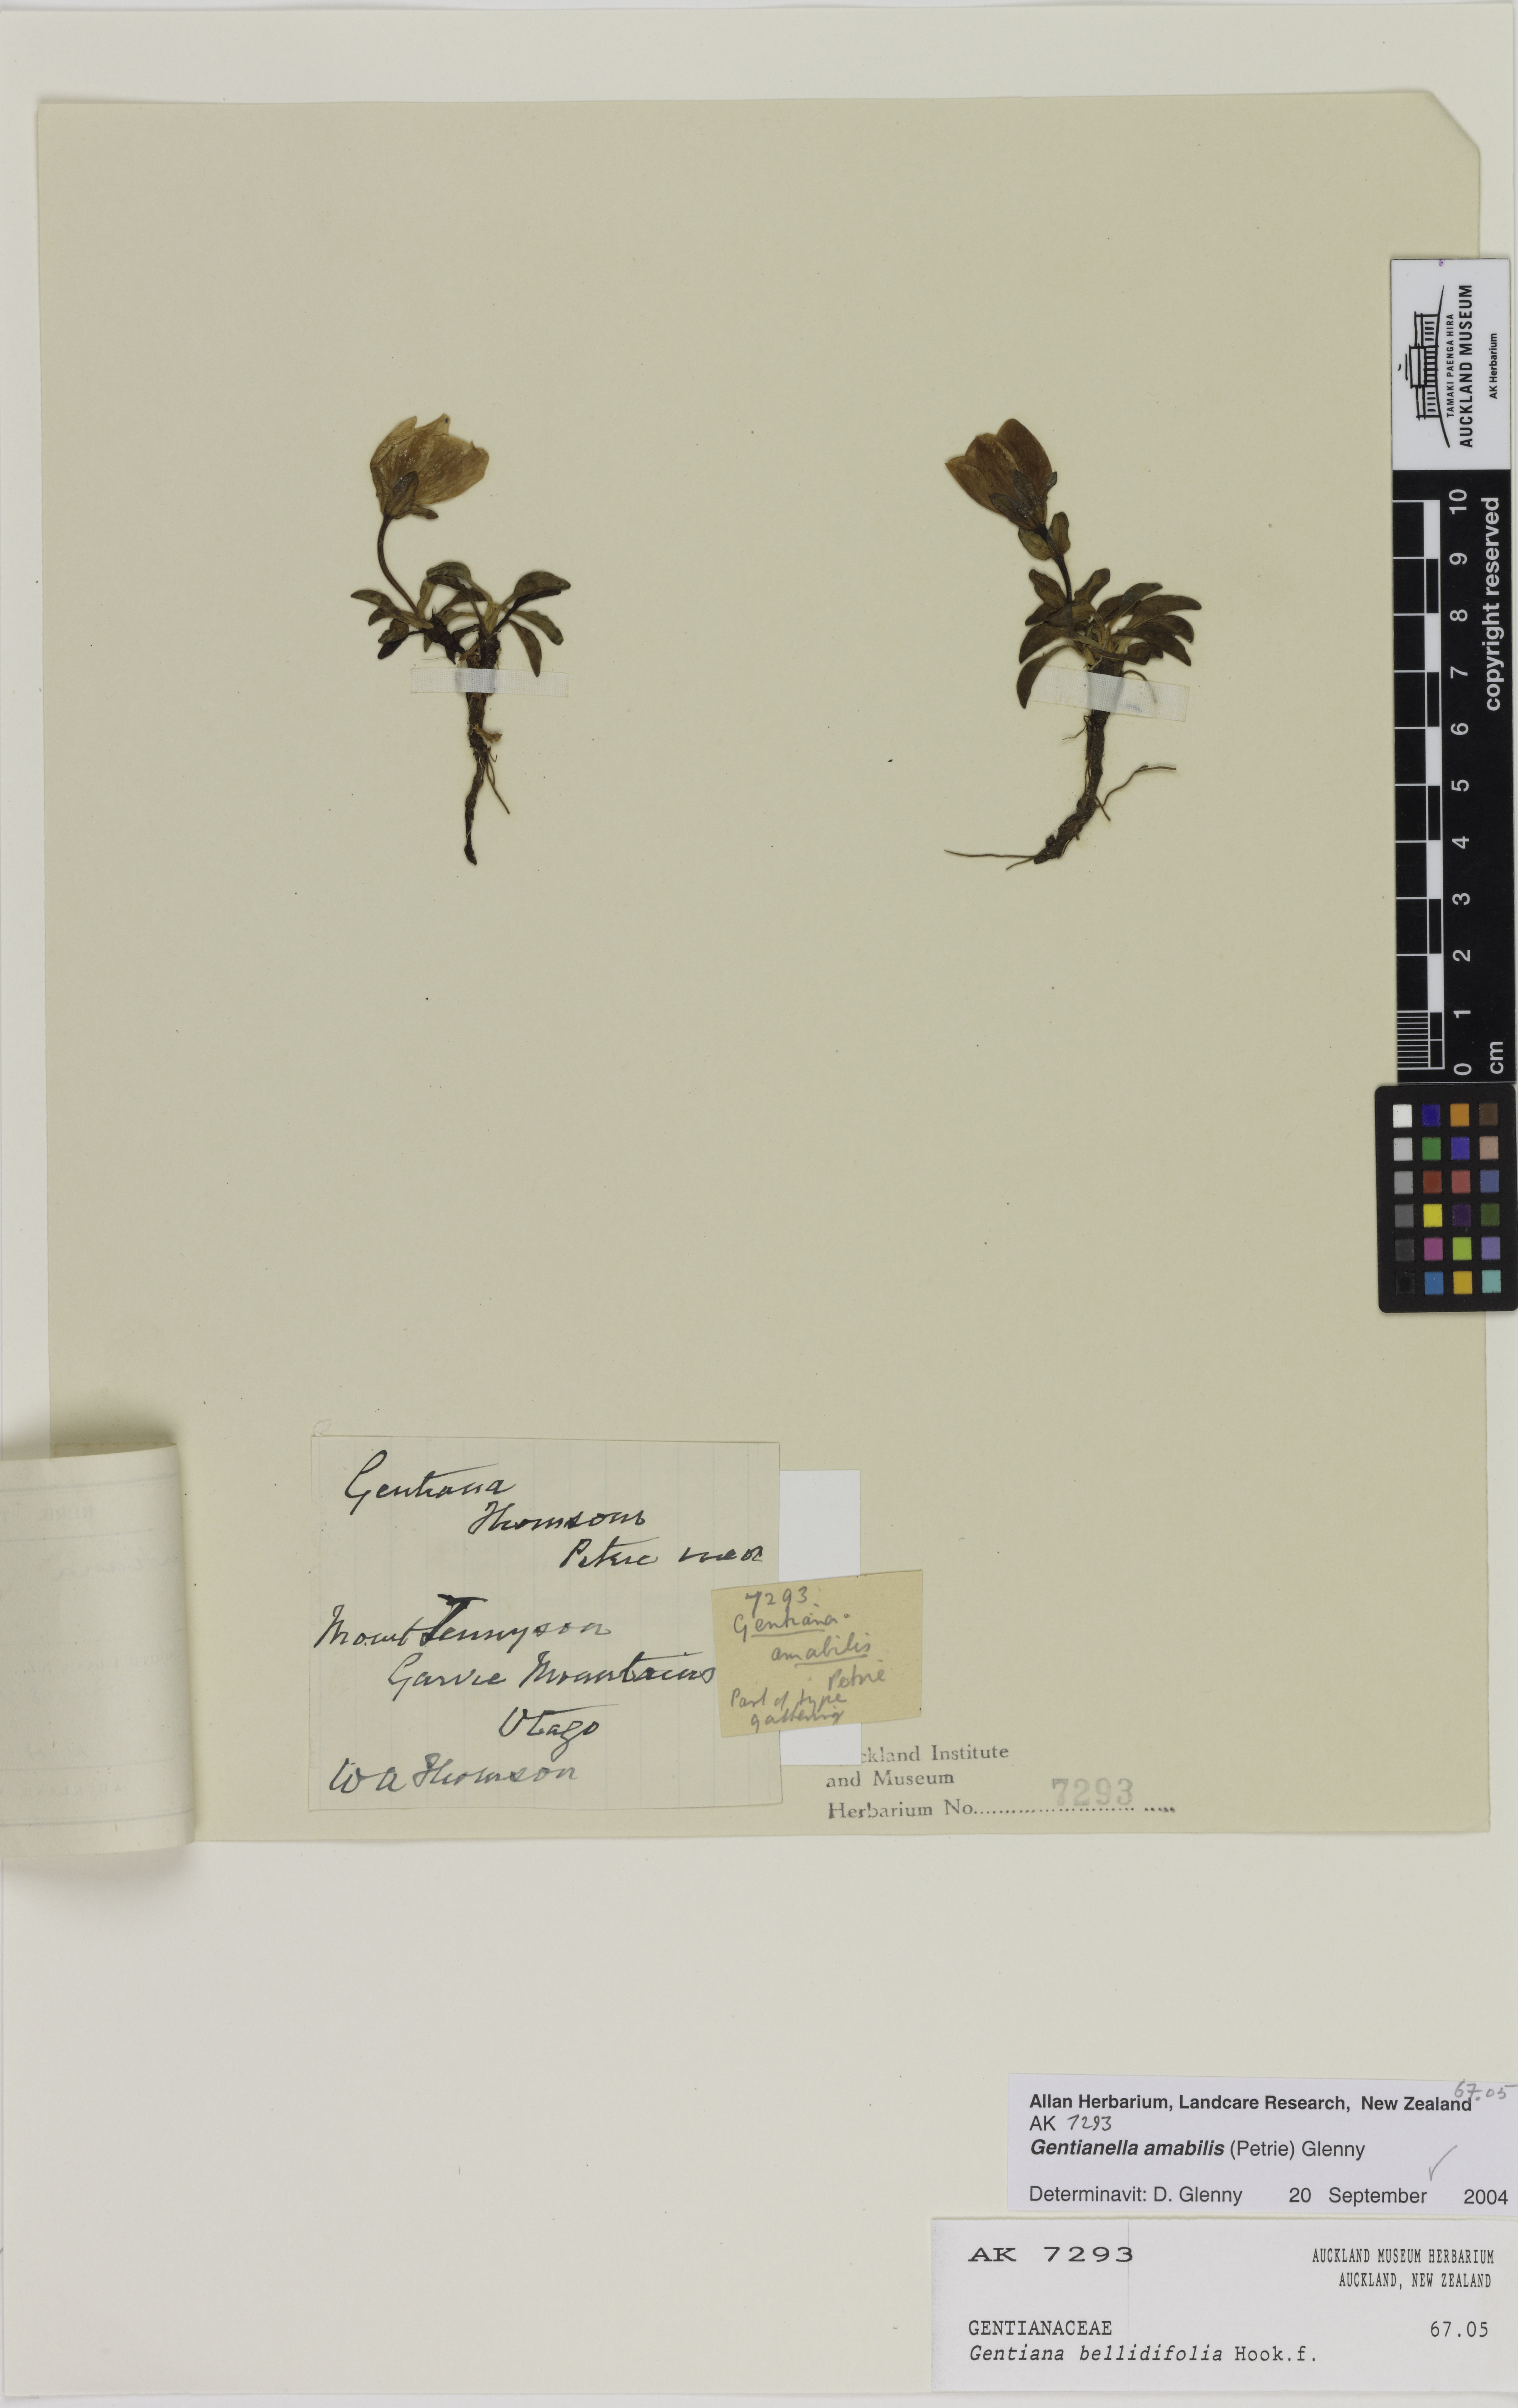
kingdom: Plantae
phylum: Tracheophyta
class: Magnoliopsida
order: Gentianales
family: Gentianaceae
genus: Gentianella
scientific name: Gentianella amabilis
